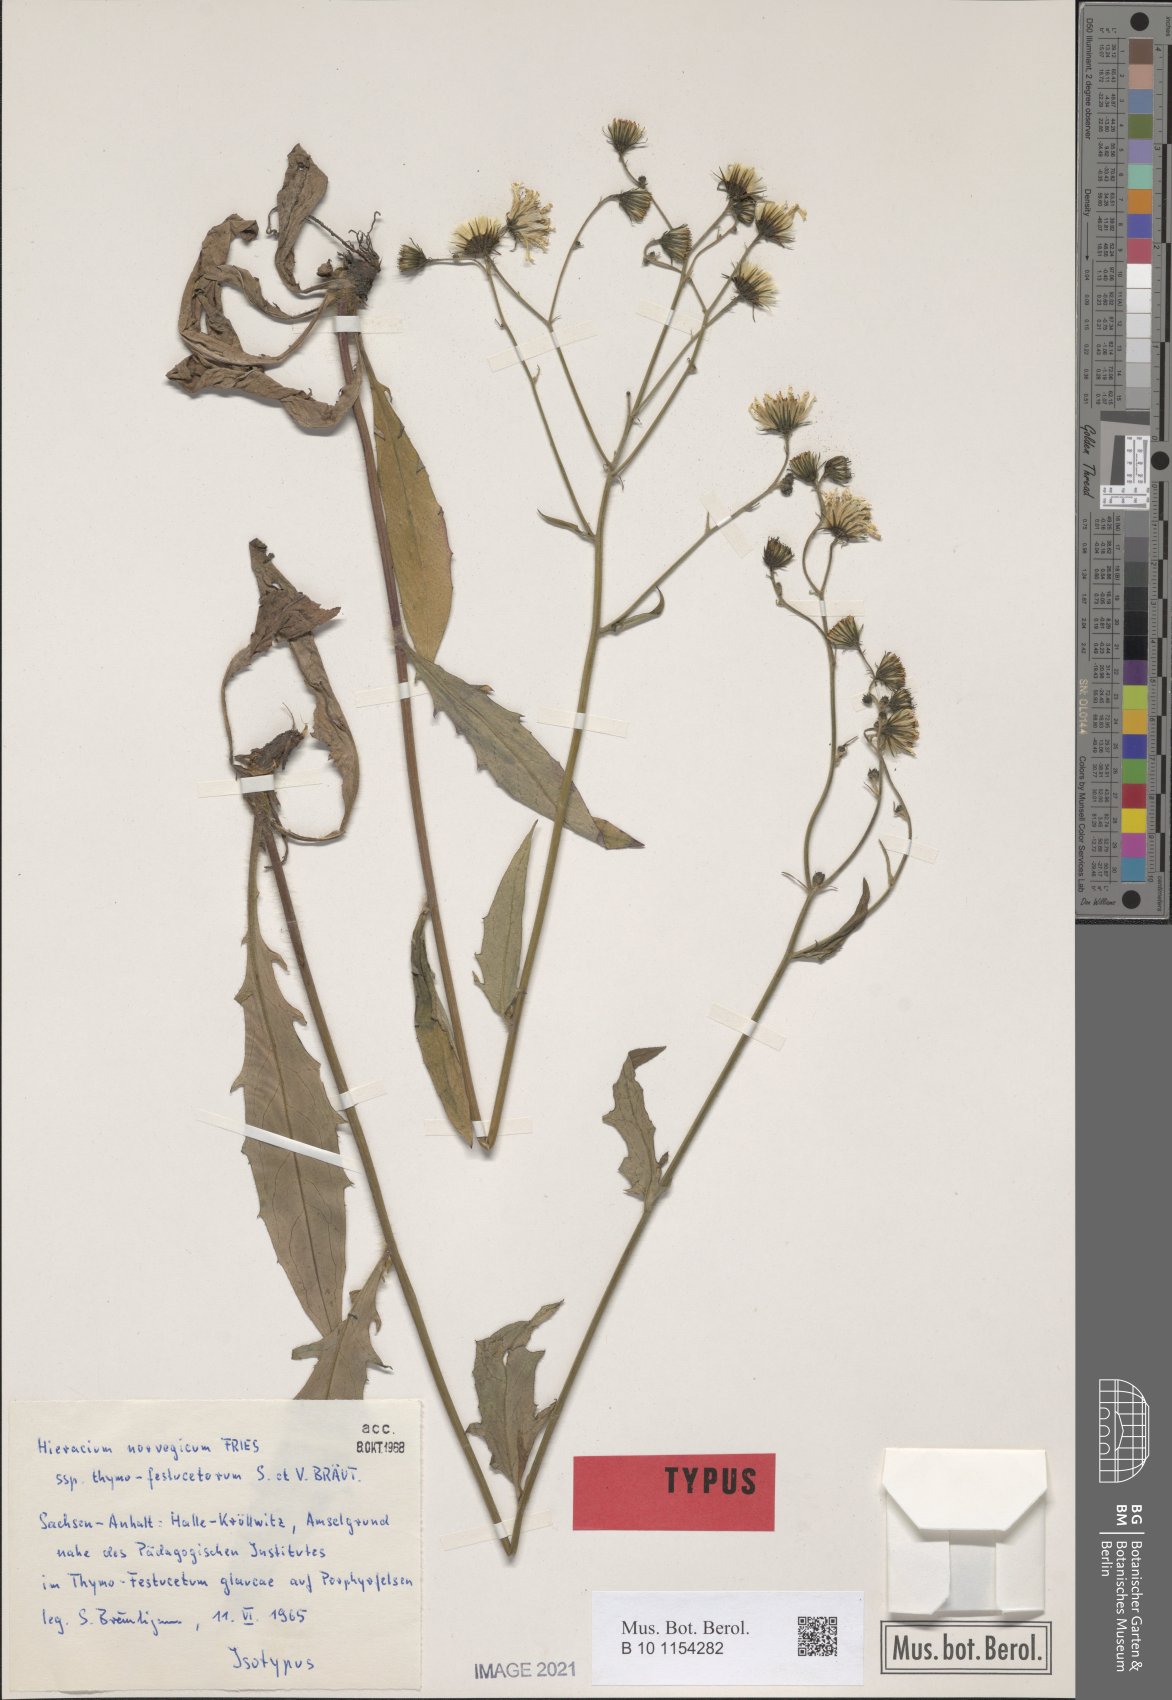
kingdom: Plantae
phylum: Tracheophyta
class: Magnoliopsida
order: Asterales
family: Asteraceae
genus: Hieracium
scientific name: Hieracium norvegicum
